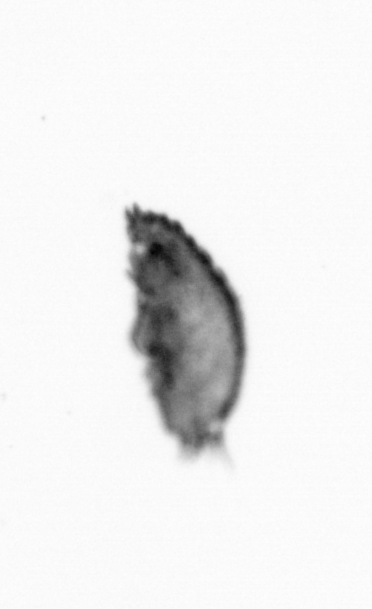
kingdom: Animalia
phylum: Arthropoda
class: Maxillopoda
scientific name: Maxillopoda
